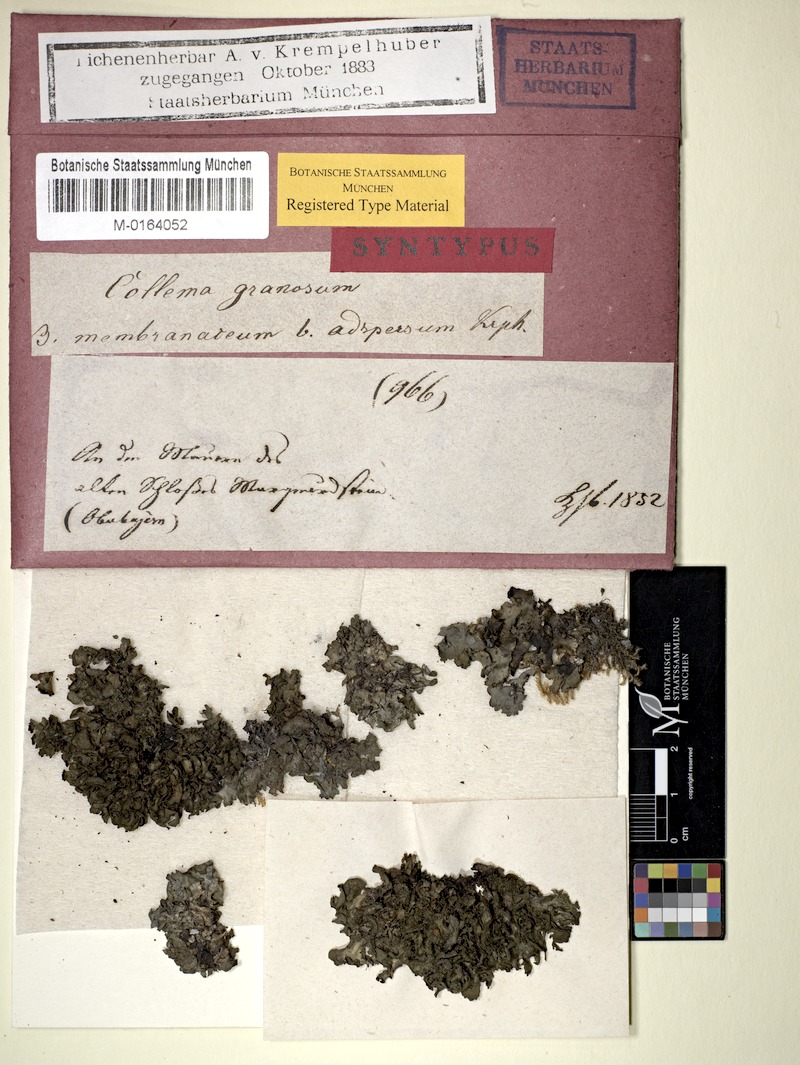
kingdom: Fungi
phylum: Ascomycota
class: Lecanoromycetes
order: Peltigerales
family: Collemataceae
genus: Lathagrium
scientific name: Lathagrium auriforme
